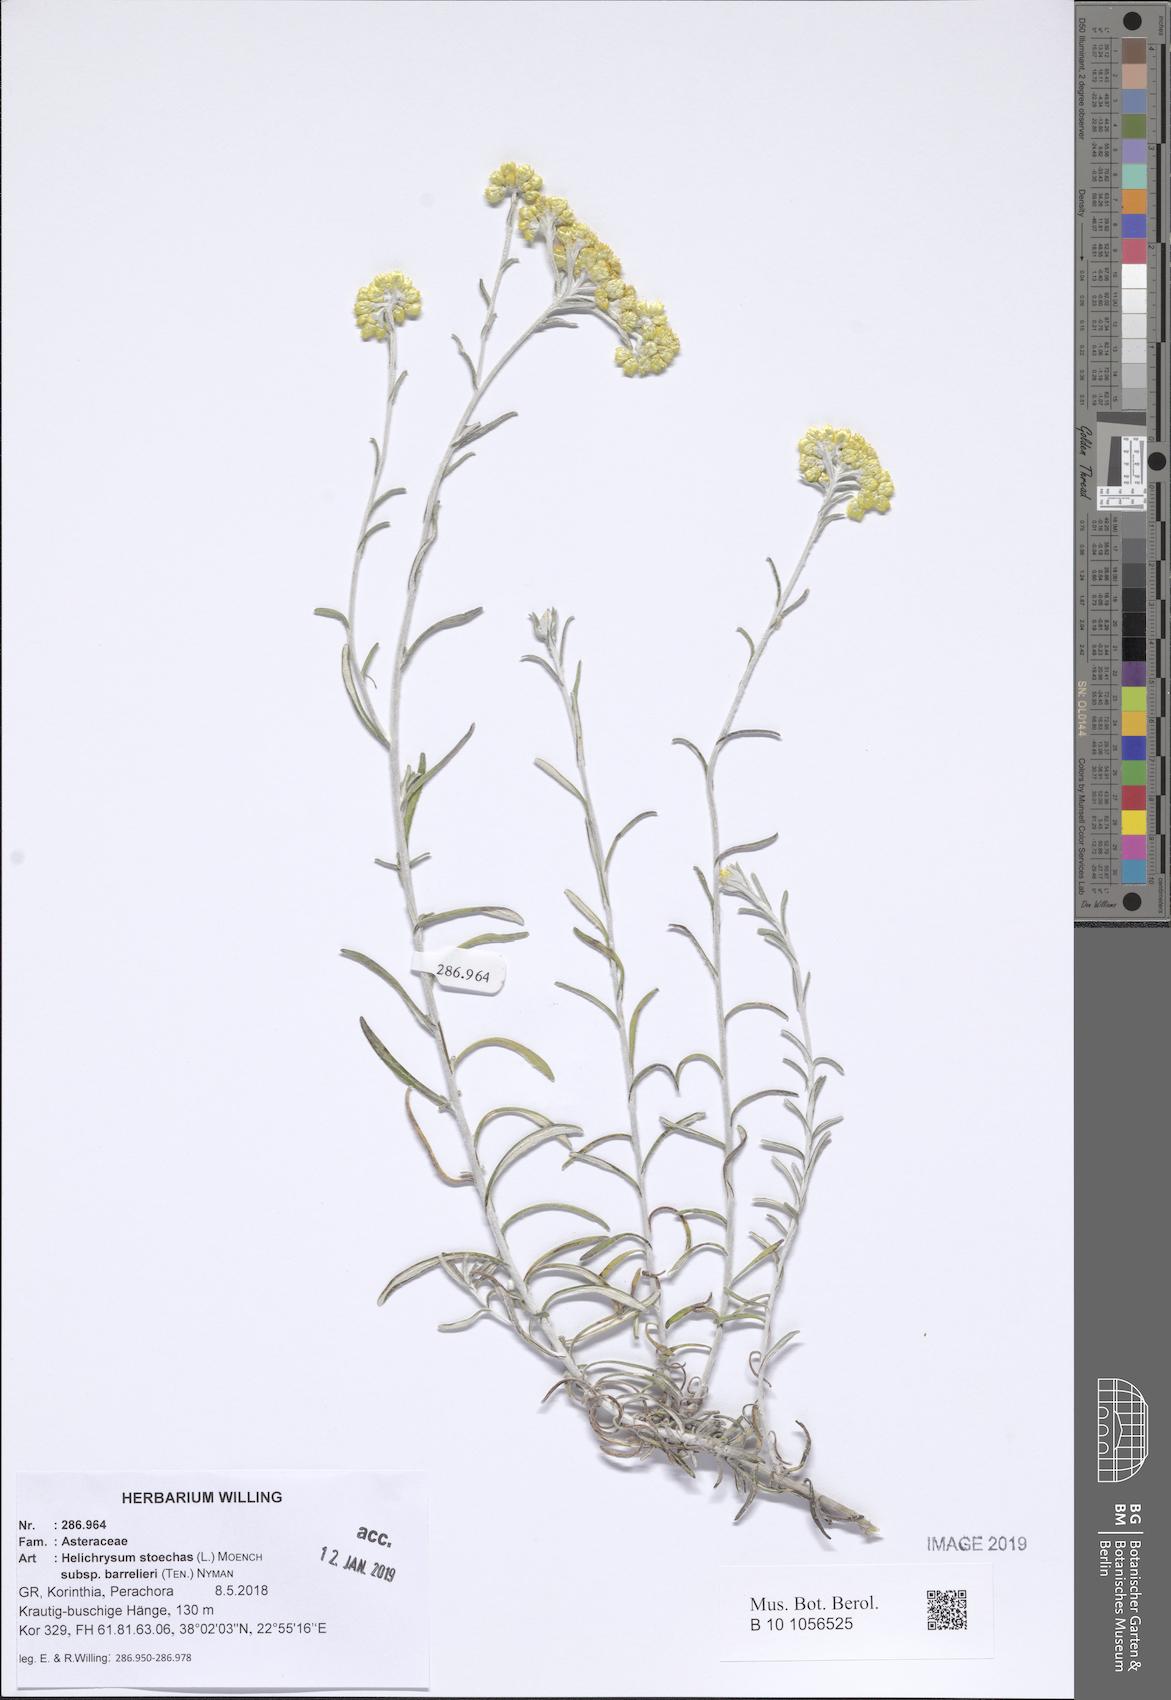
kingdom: Plantae
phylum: Tracheophyta
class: Magnoliopsida
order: Asterales
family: Asteraceae
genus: Helichrysum
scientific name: Helichrysum stoechas
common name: Goldilocks
